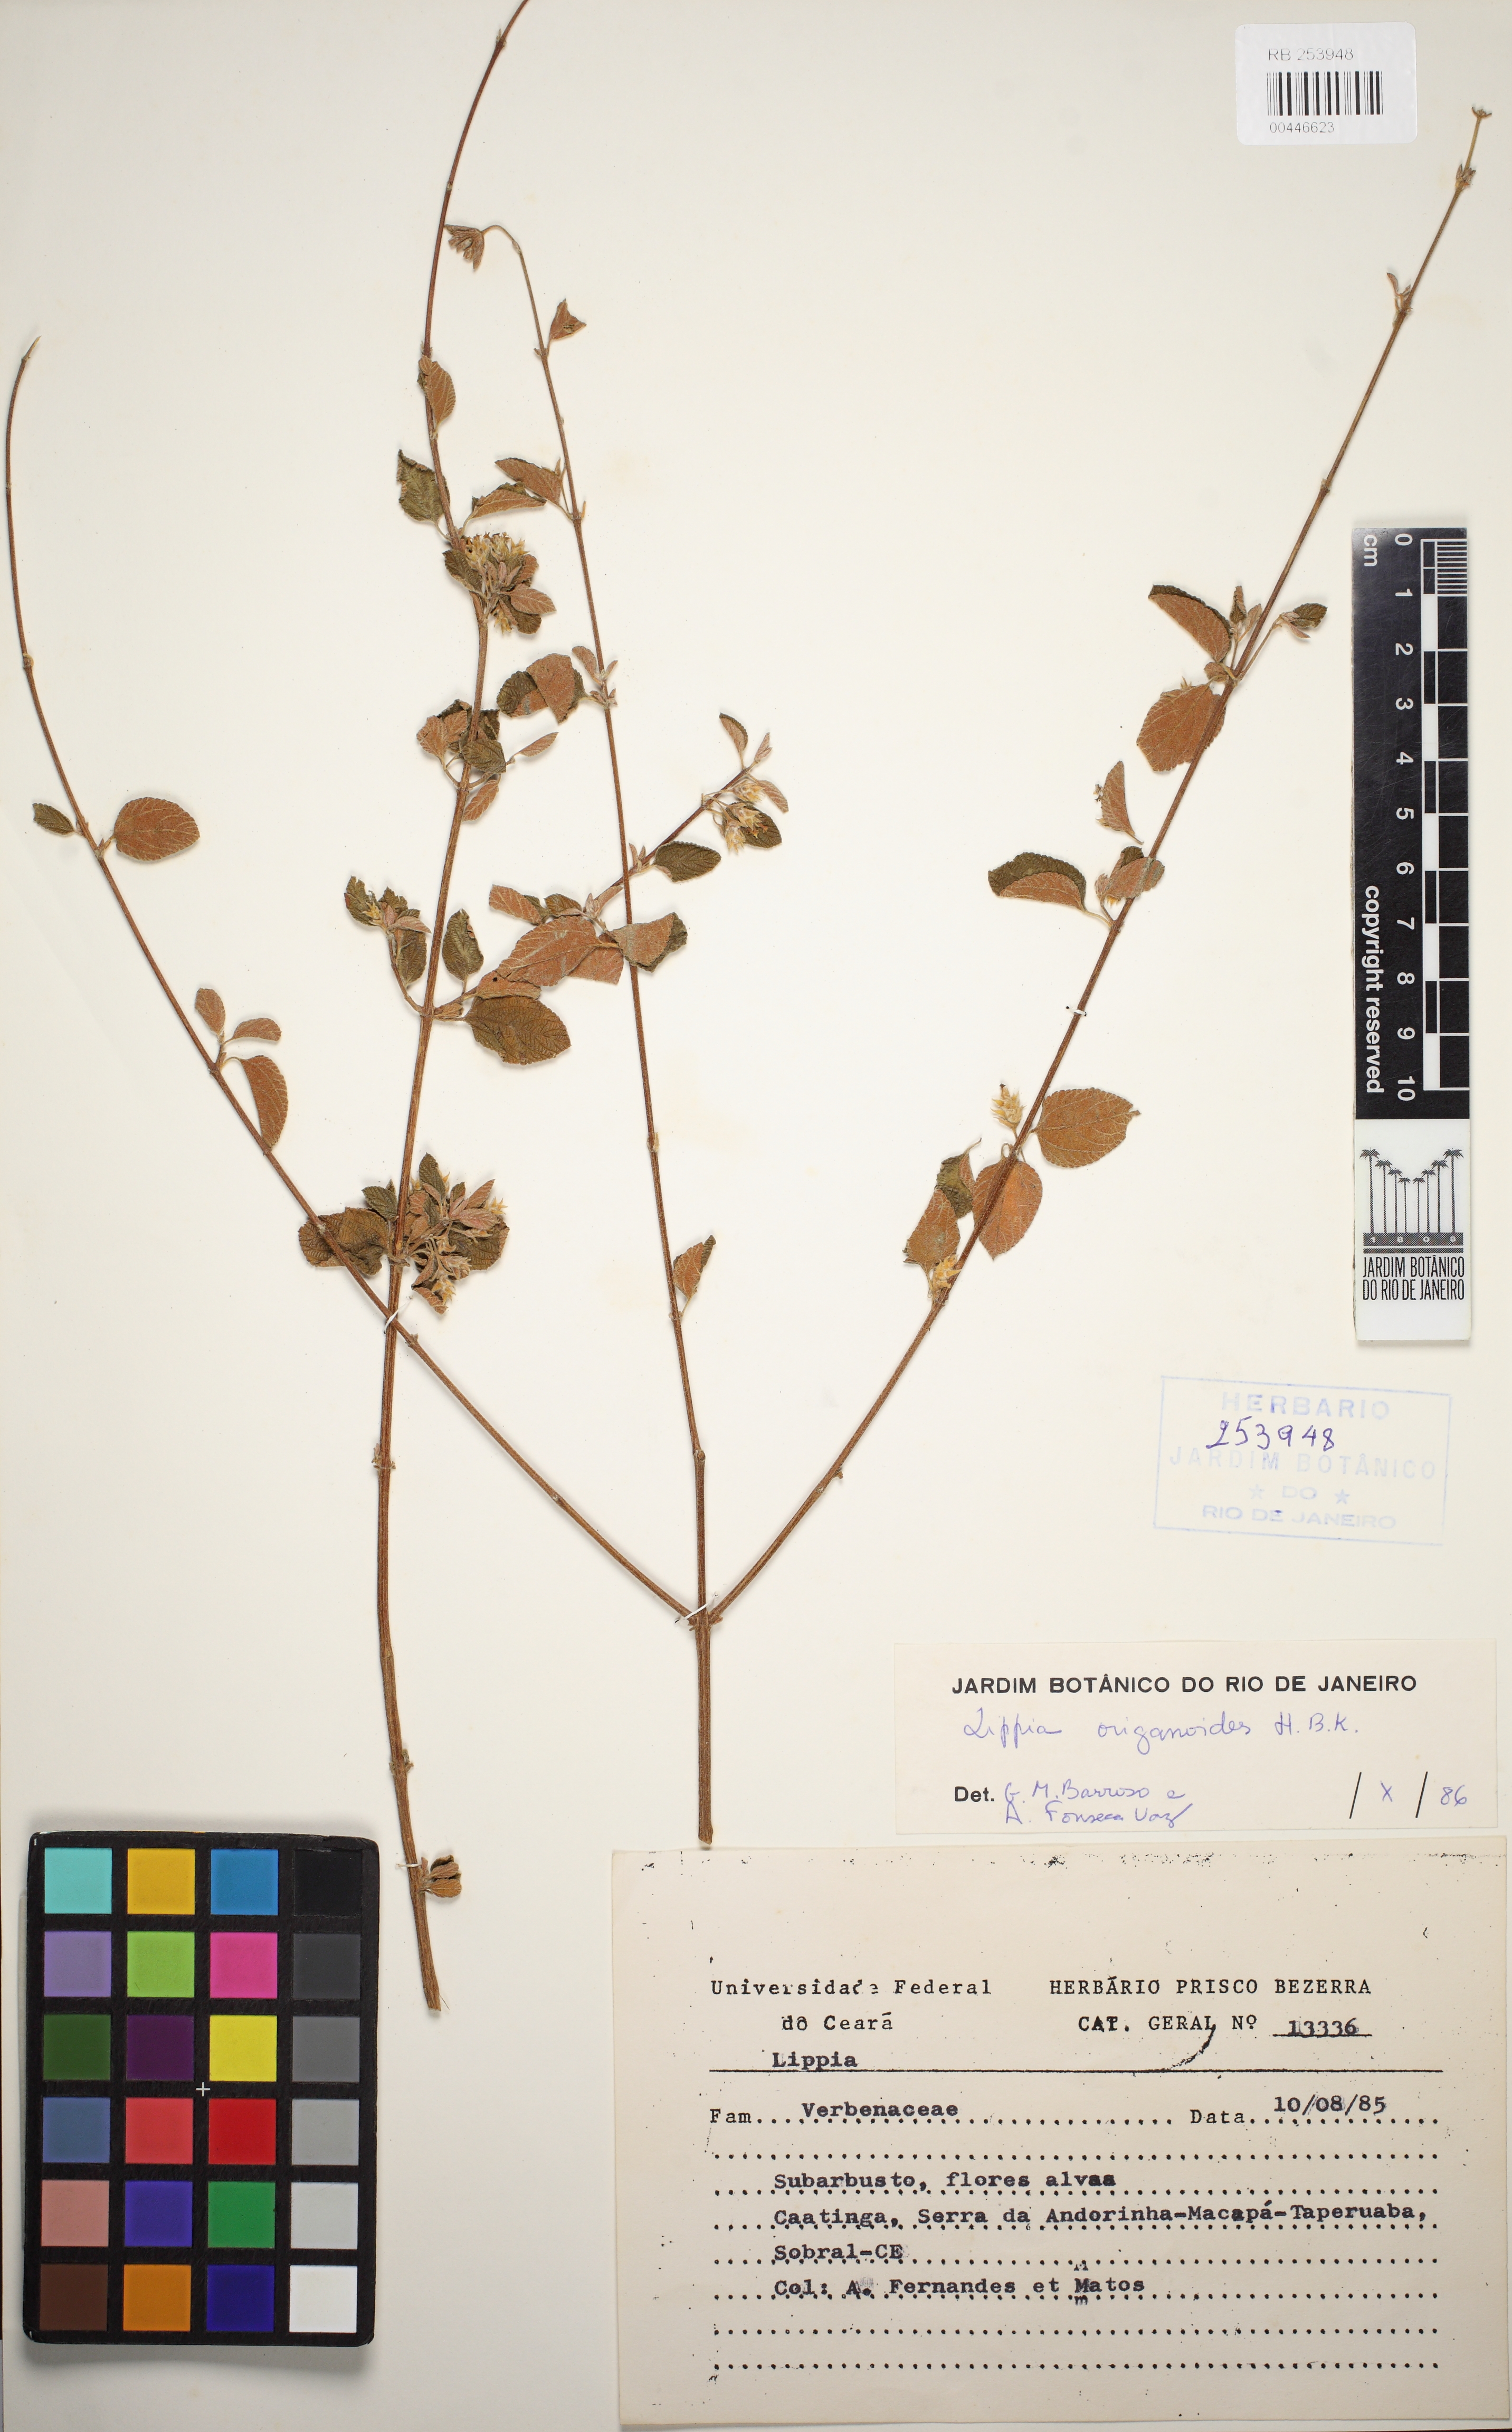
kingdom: Plantae
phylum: Tracheophyta
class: Magnoliopsida
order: Lamiales
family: Verbenaceae
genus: Lippia
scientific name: Lippia origanoides
